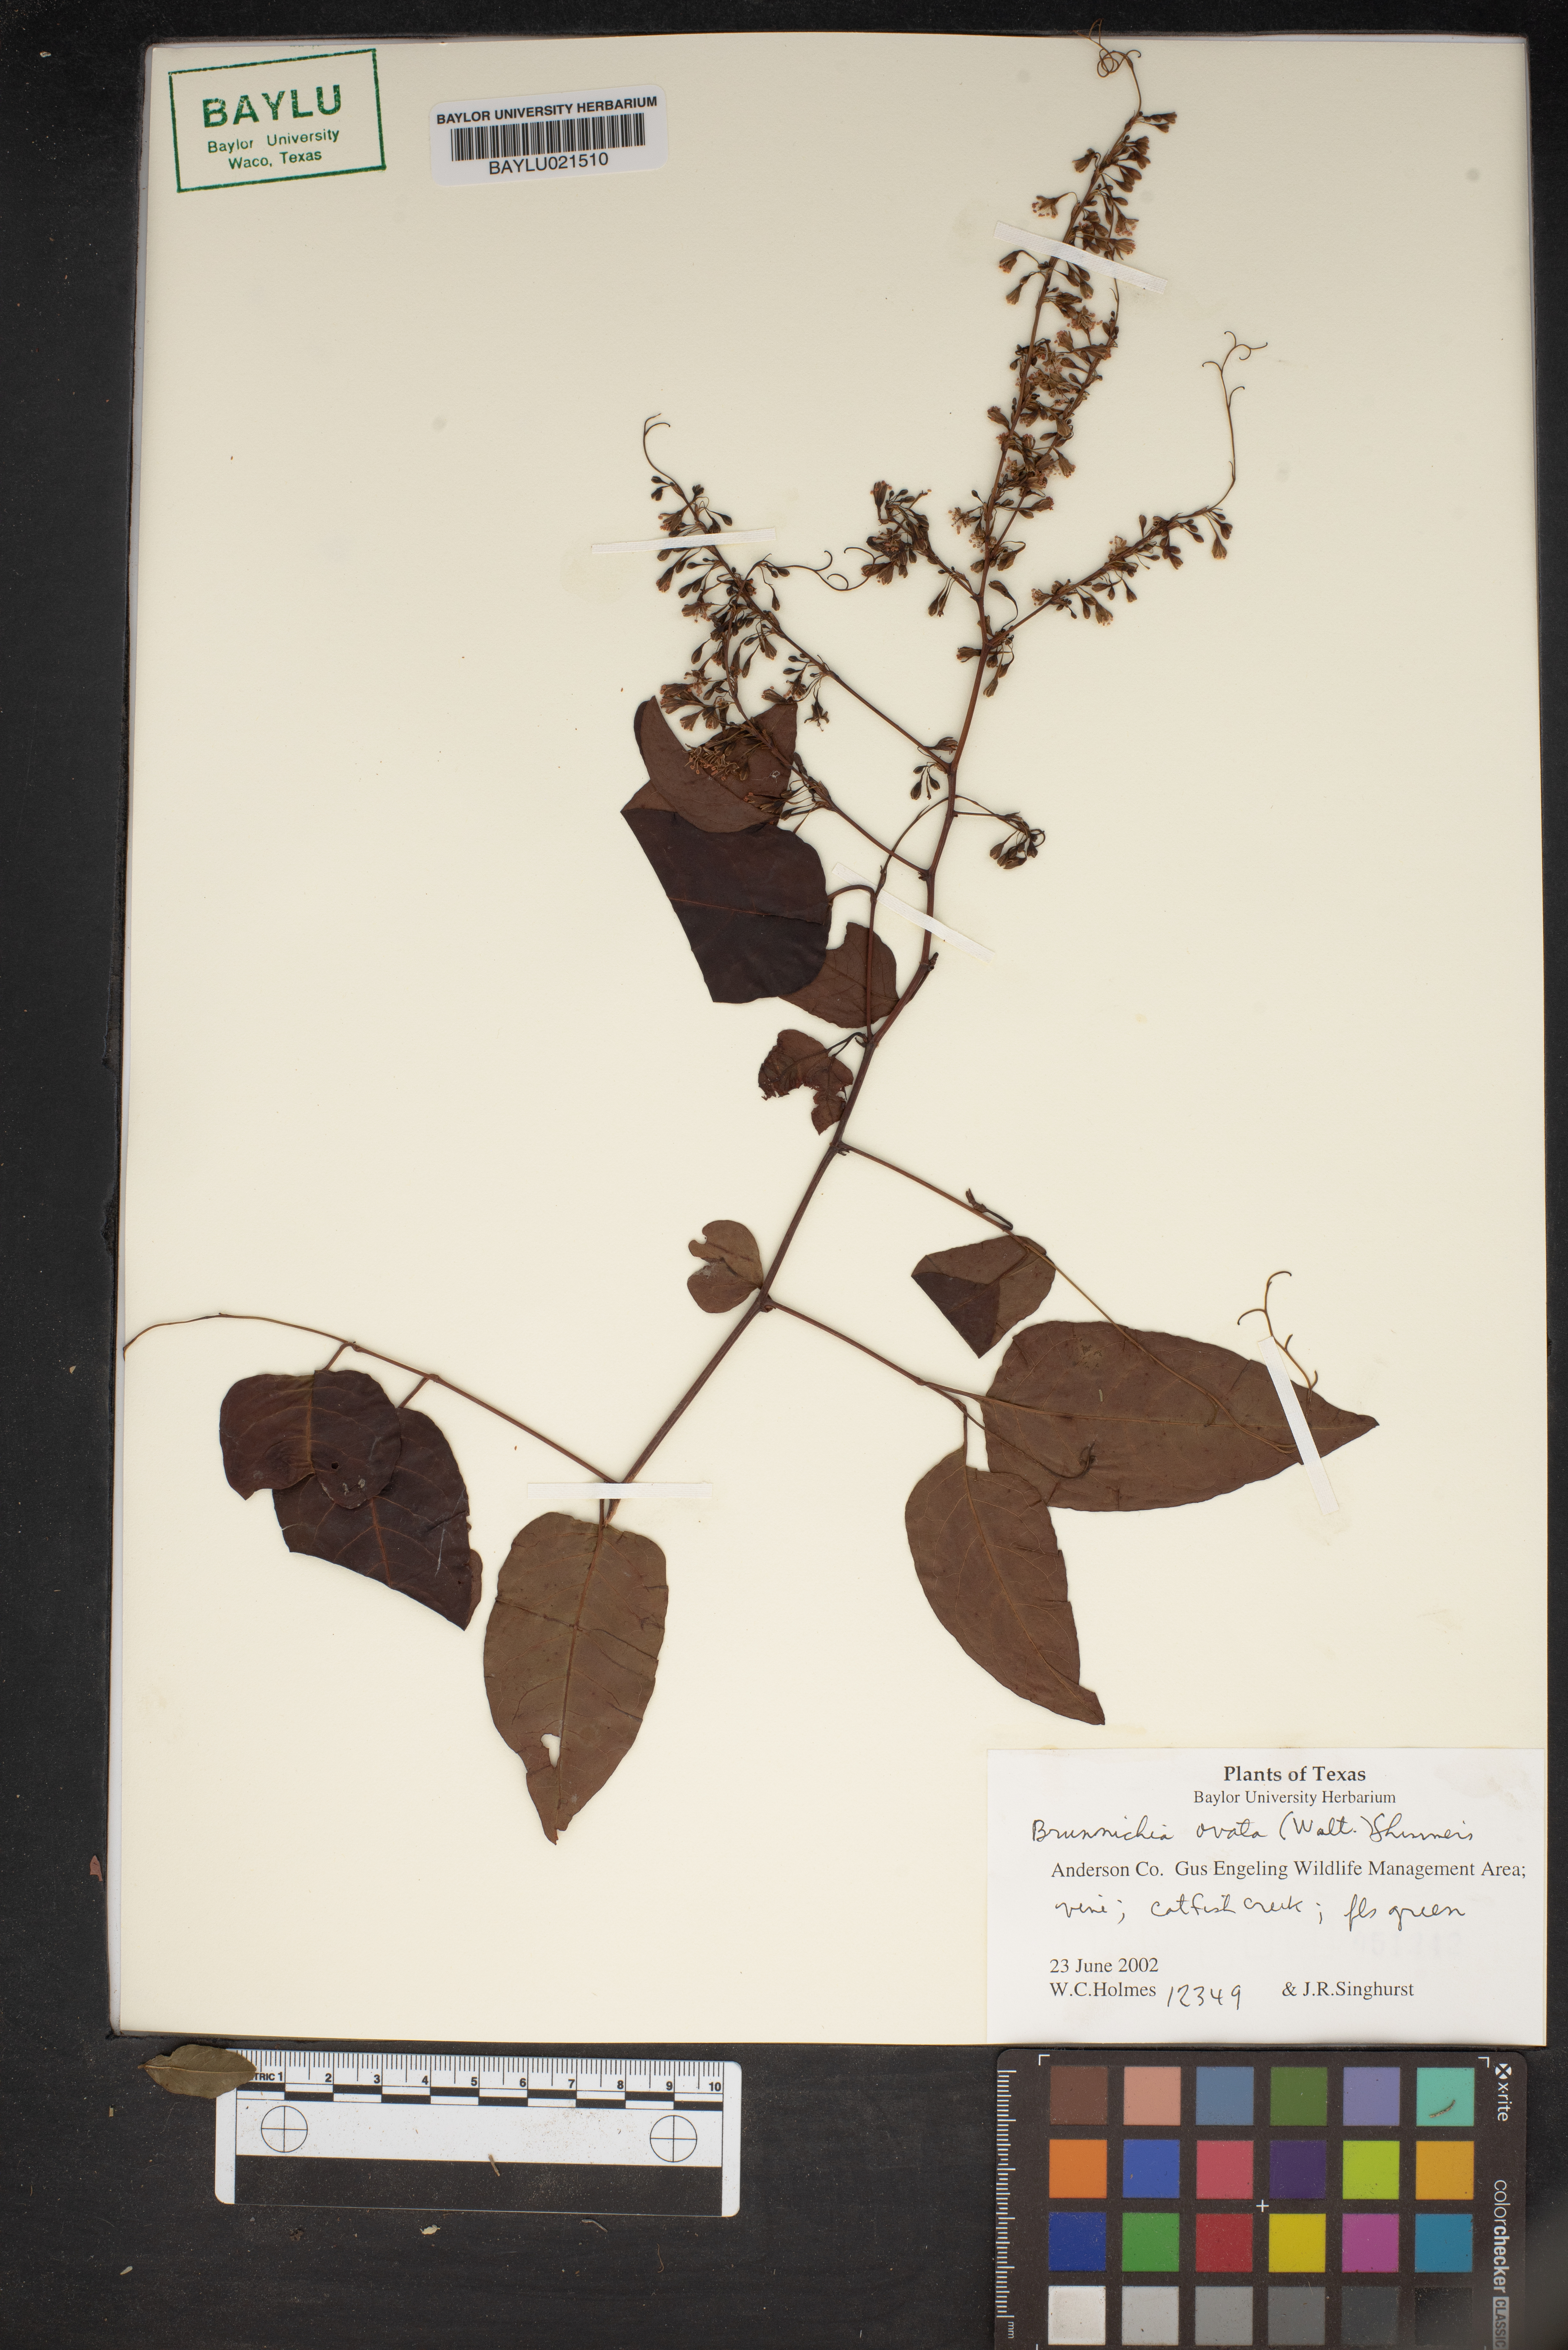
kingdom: Plantae
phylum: Tracheophyta
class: Magnoliopsida
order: Caryophyllales
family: Polygonaceae
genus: Brunnichia
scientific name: Brunnichia ovata
